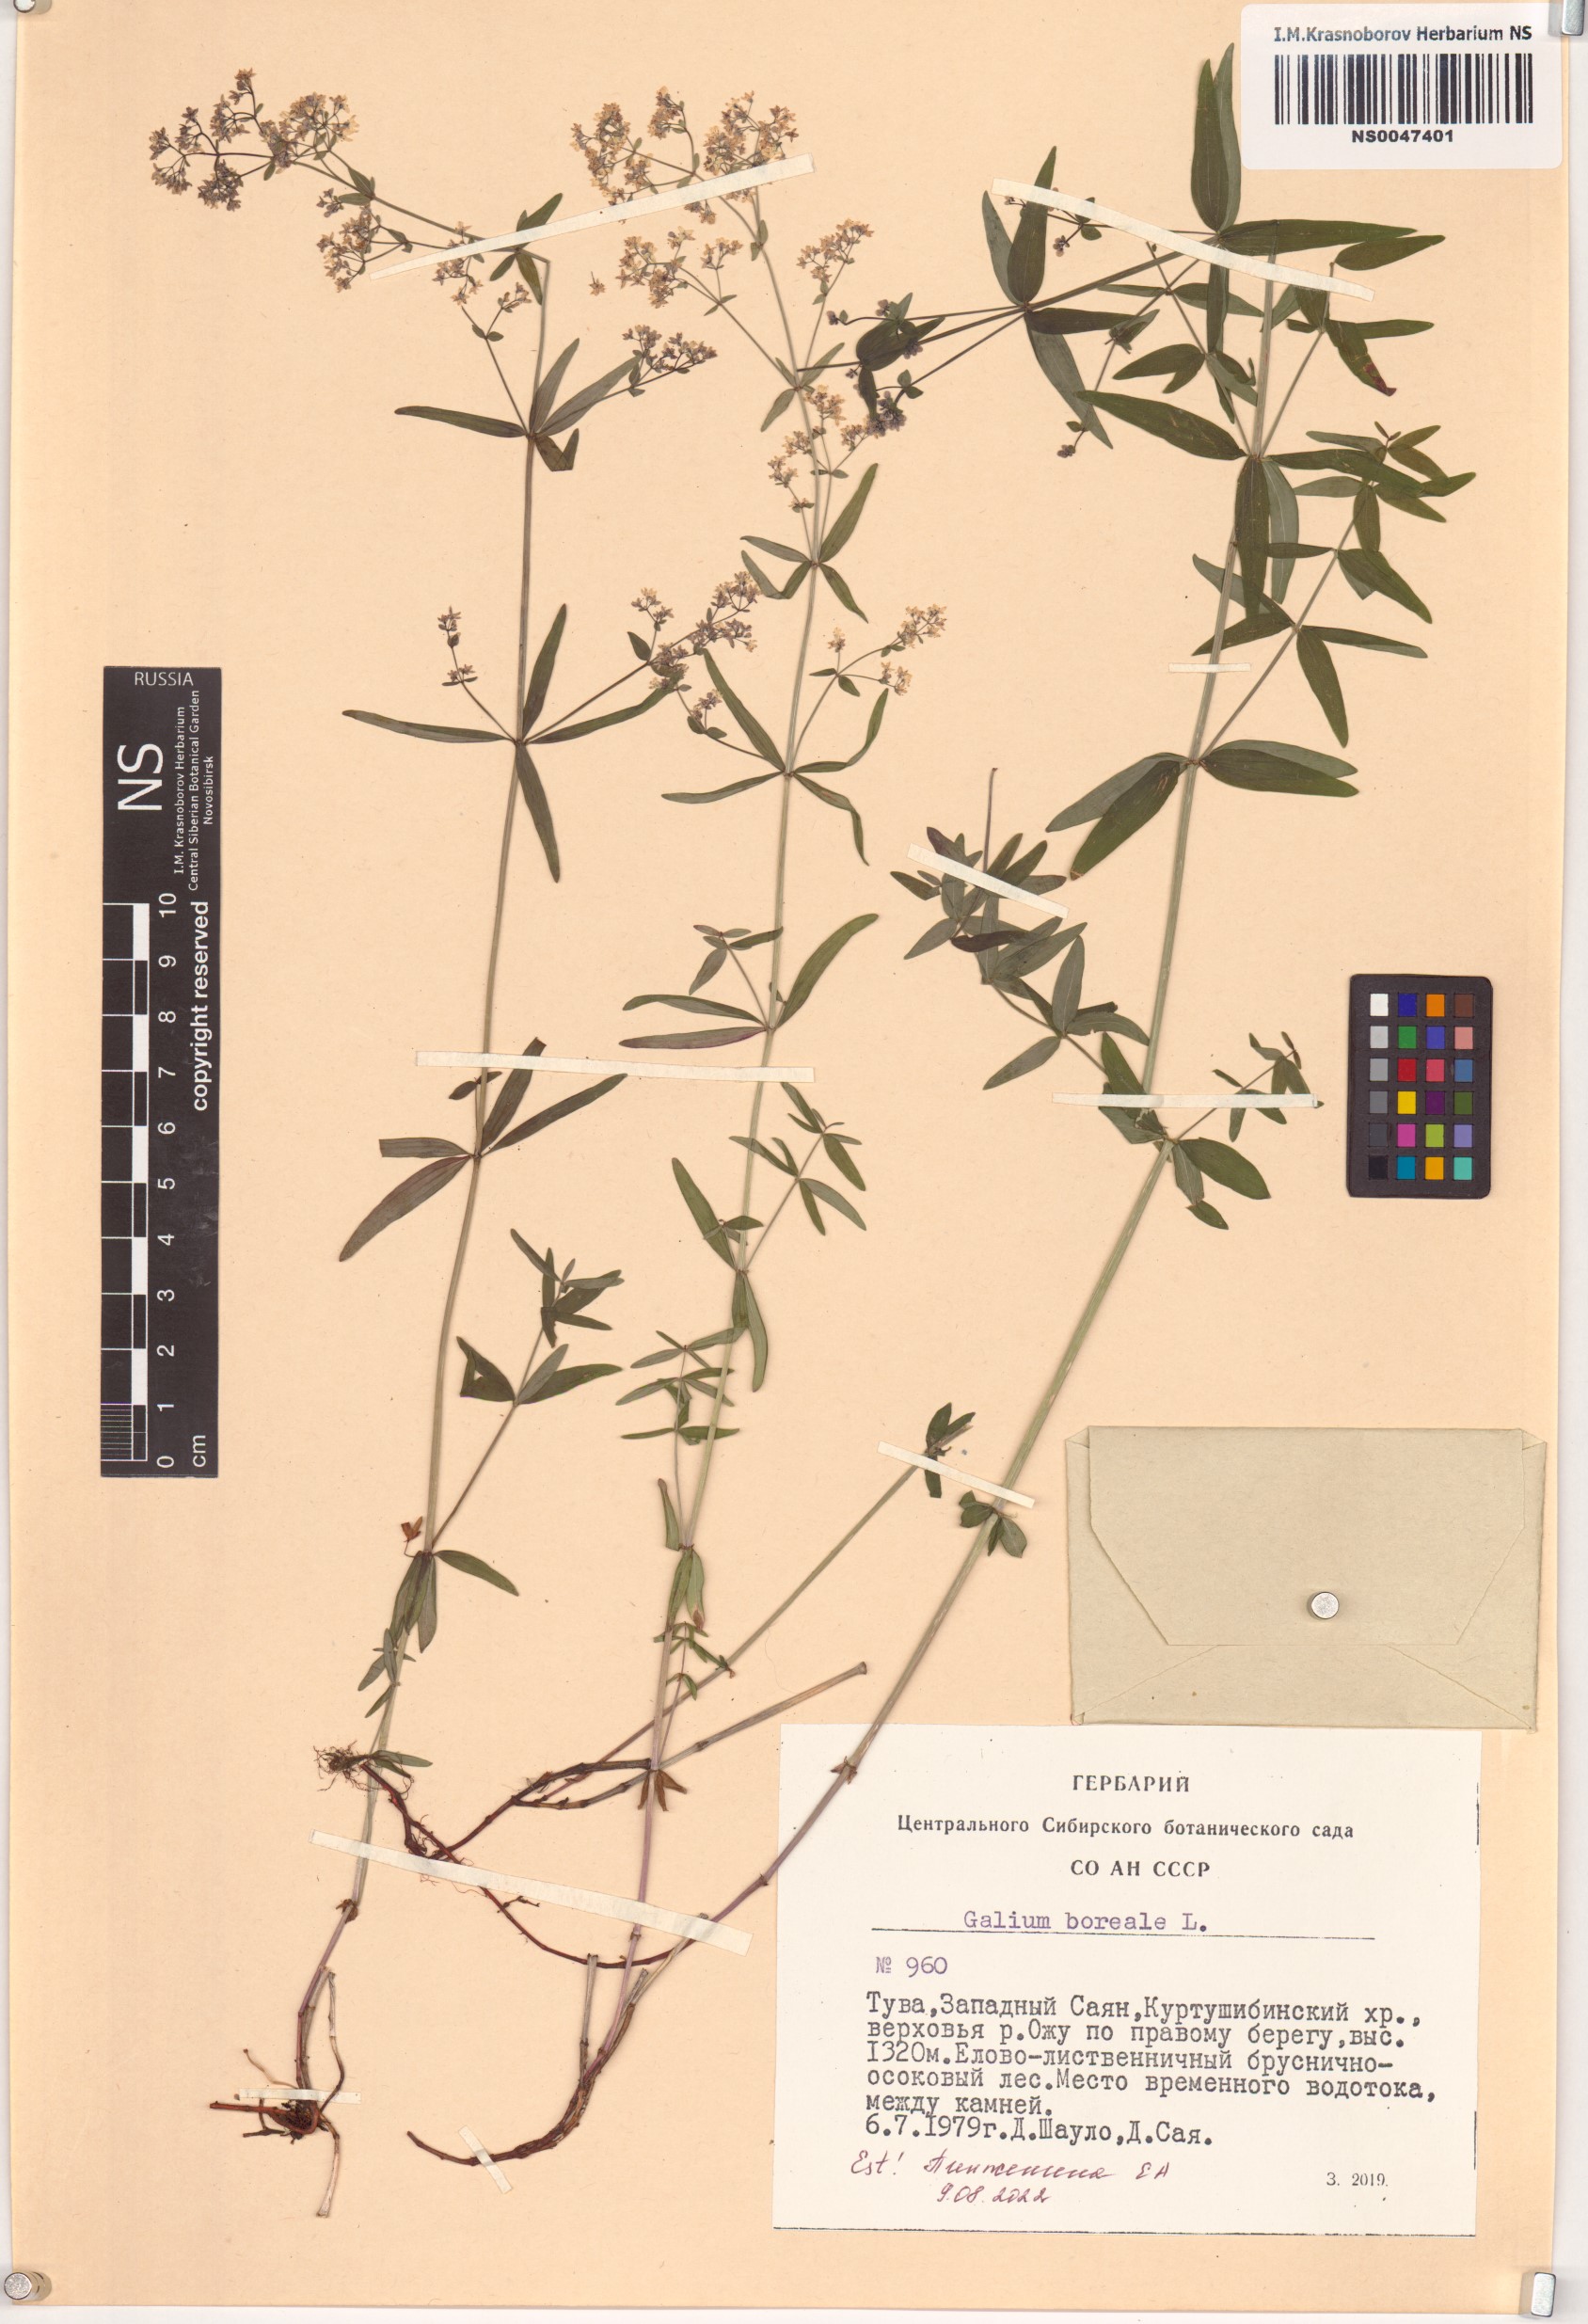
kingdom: Plantae
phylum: Tracheophyta
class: Magnoliopsida
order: Gentianales
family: Rubiaceae
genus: Galium
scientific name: Galium boreale
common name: Northern bedstraw
